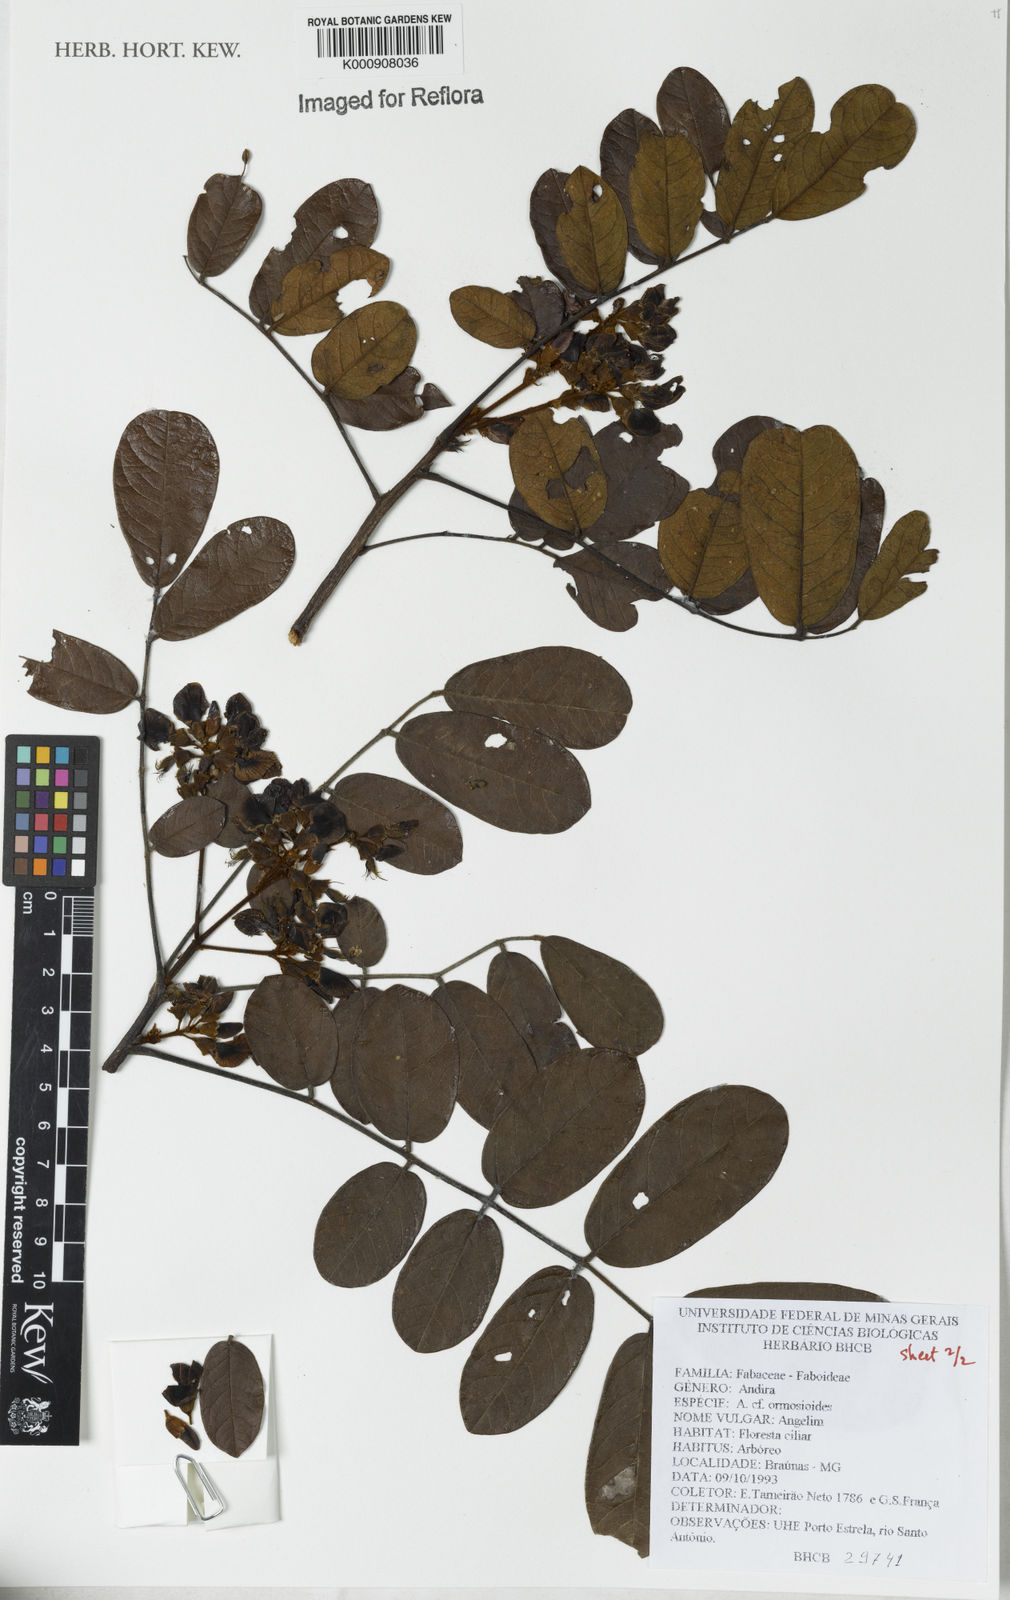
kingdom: Plantae
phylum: Tracheophyta
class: Magnoliopsida
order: Fabales
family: Fabaceae
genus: Andira
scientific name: Andira
